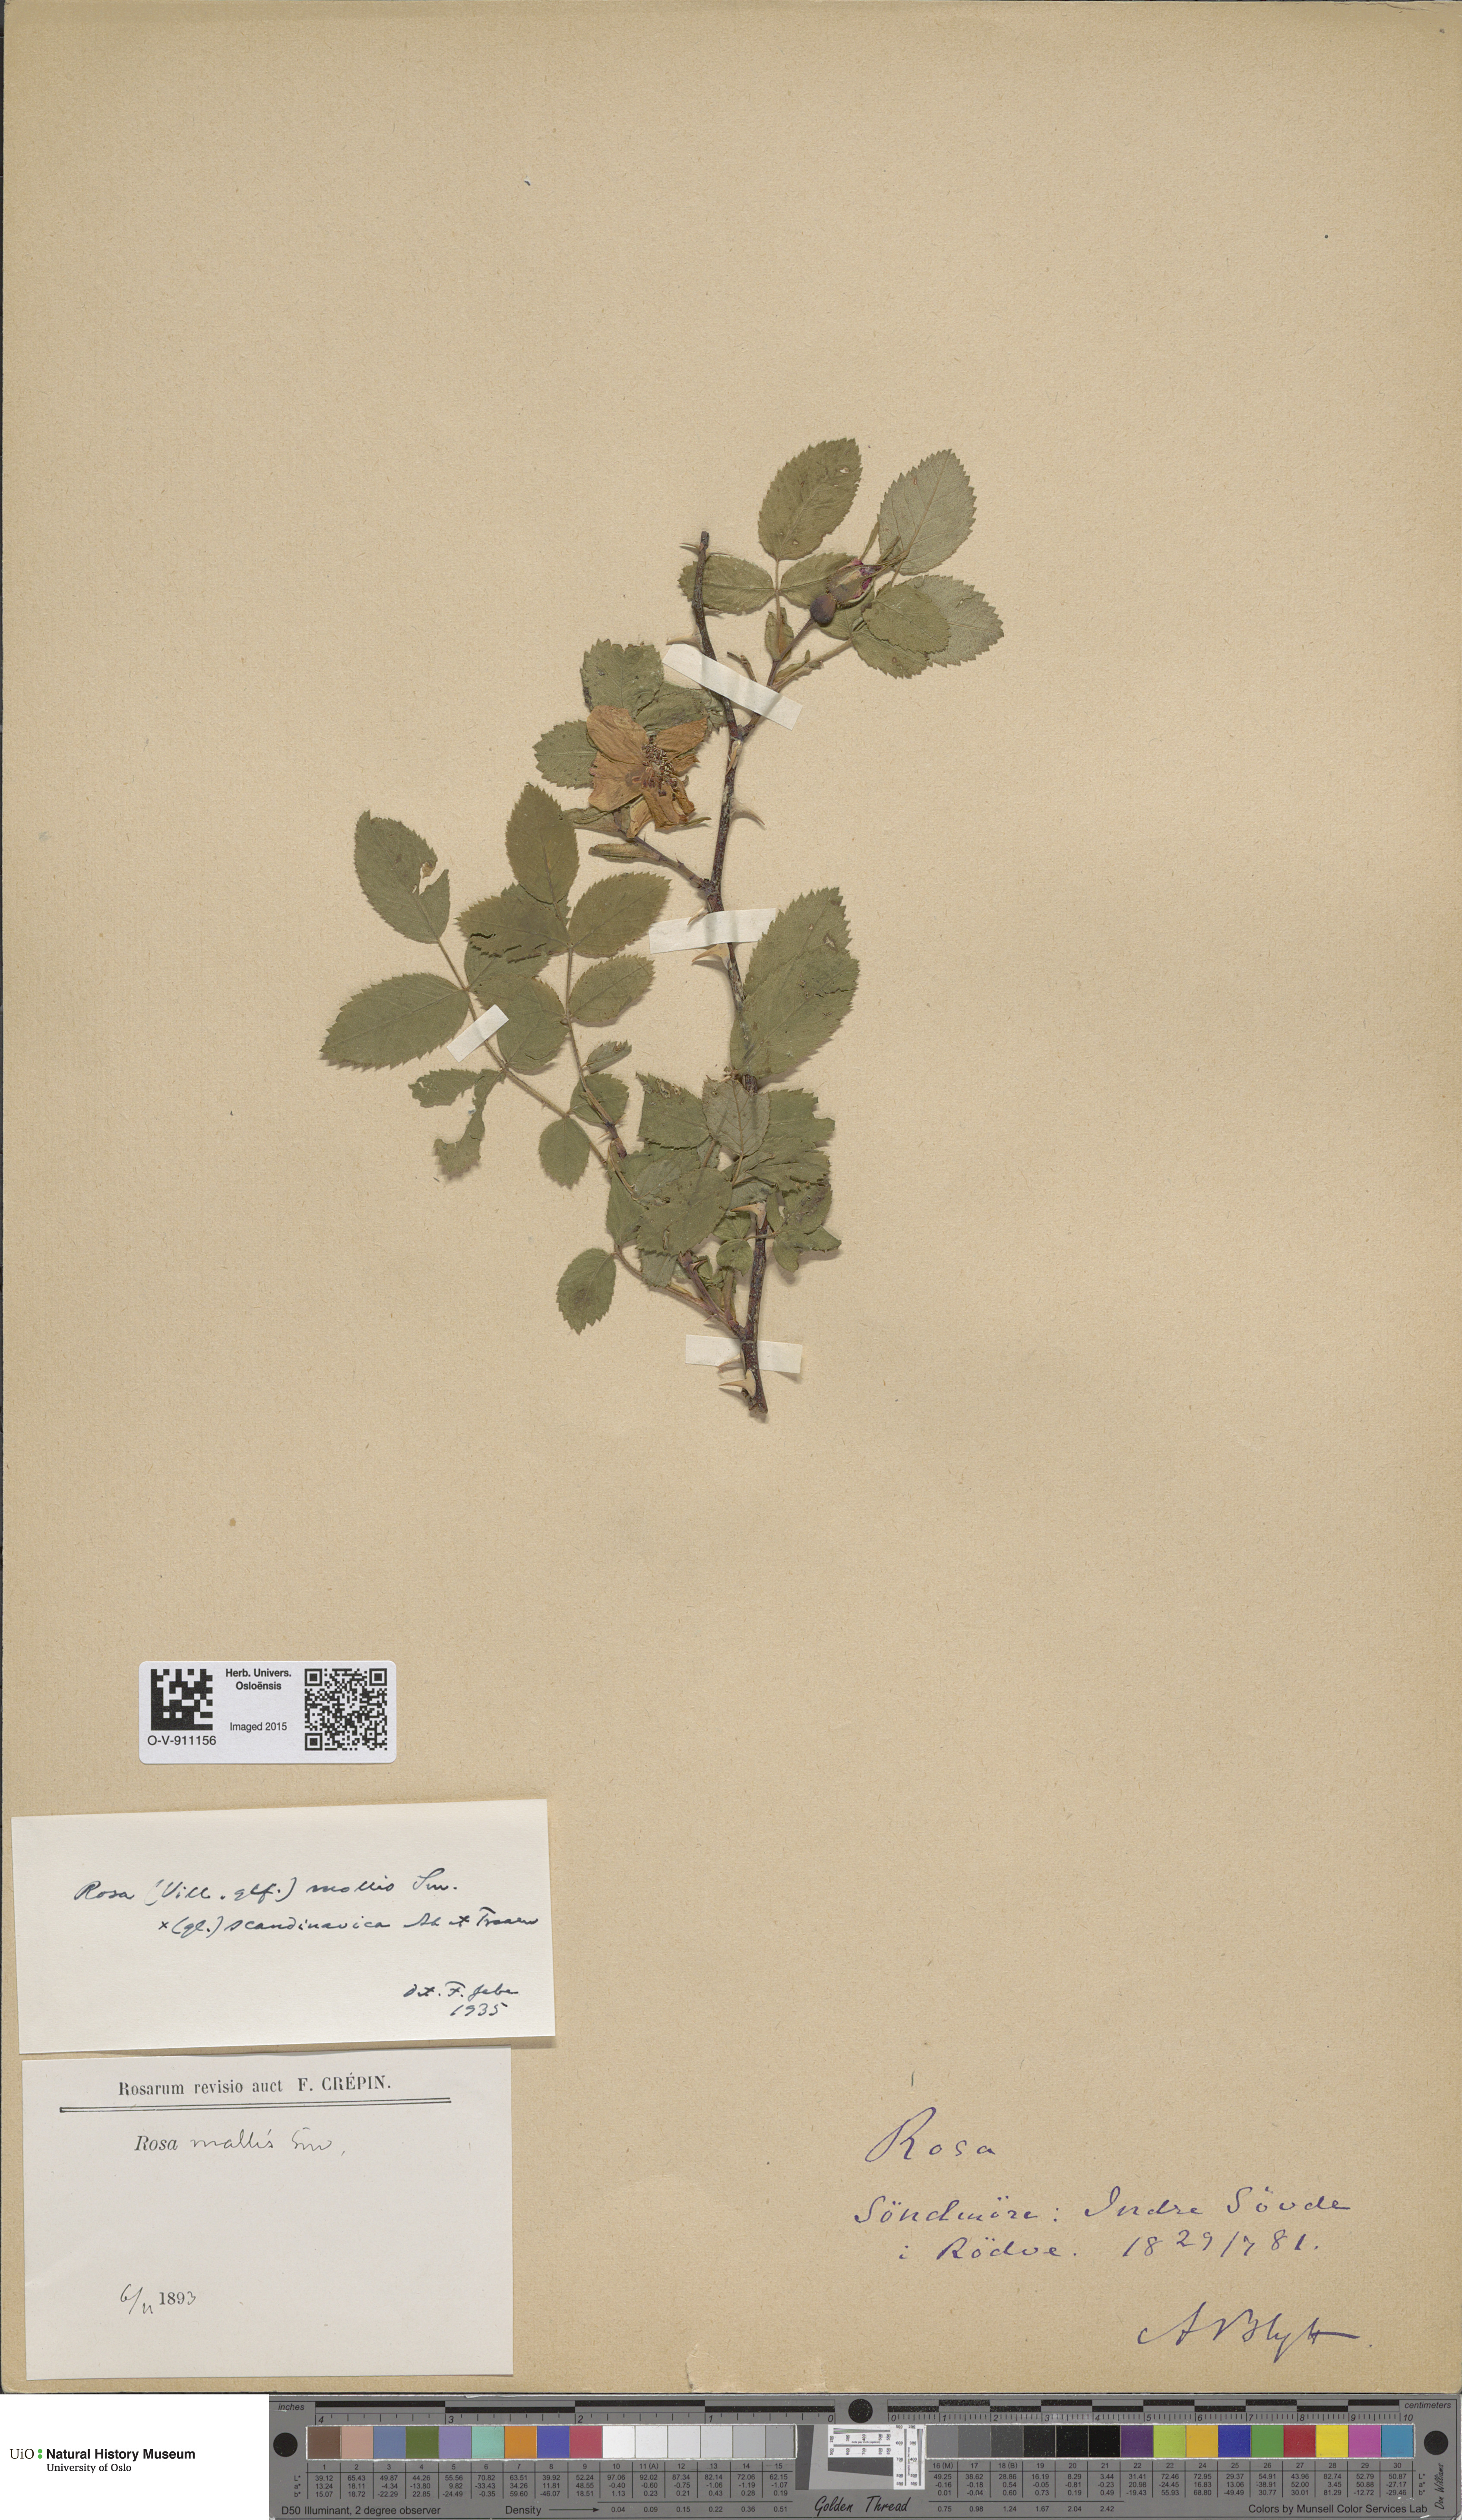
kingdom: Plantae
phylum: Tracheophyta
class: Magnoliopsida
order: Rosales
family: Rosaceae
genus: Rosa
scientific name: Rosa mollis
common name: Rose
